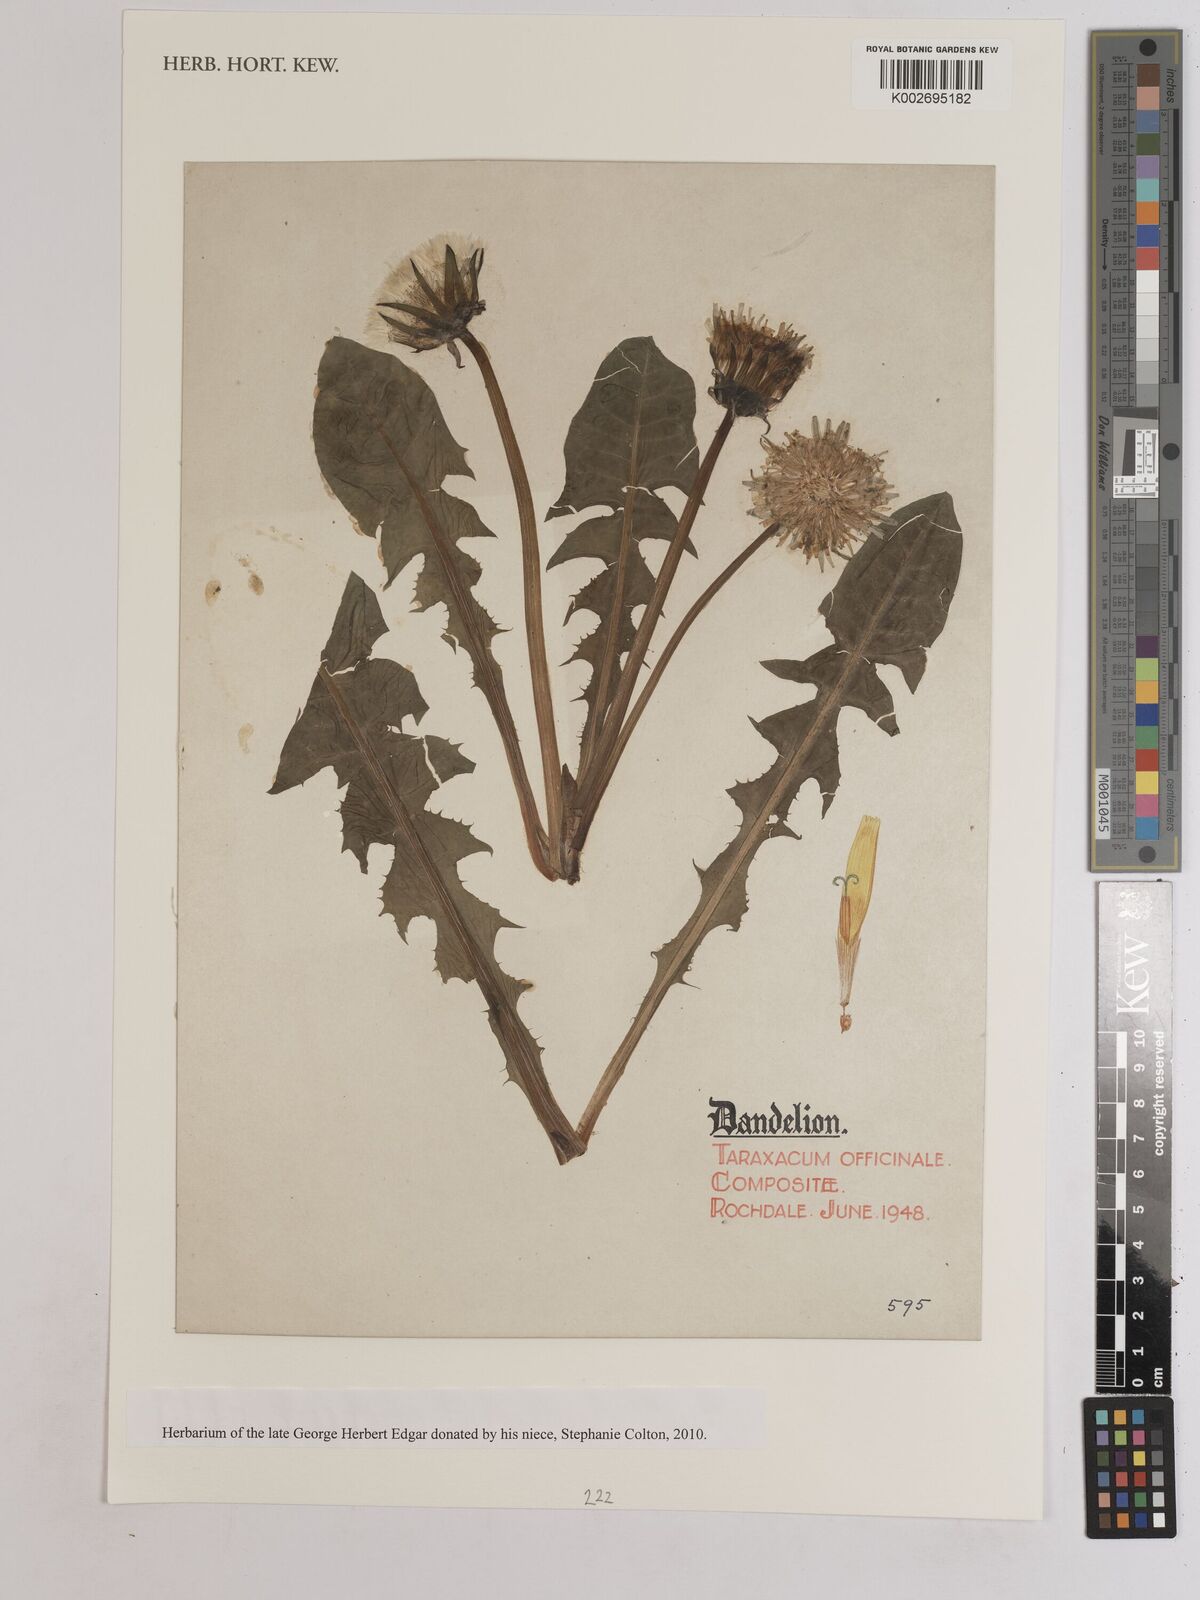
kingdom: Plantae
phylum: Tracheophyta
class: Magnoliopsida
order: Asterales
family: Asteraceae
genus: Taraxacum
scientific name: Taraxacum officinale
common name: Common dandelion
